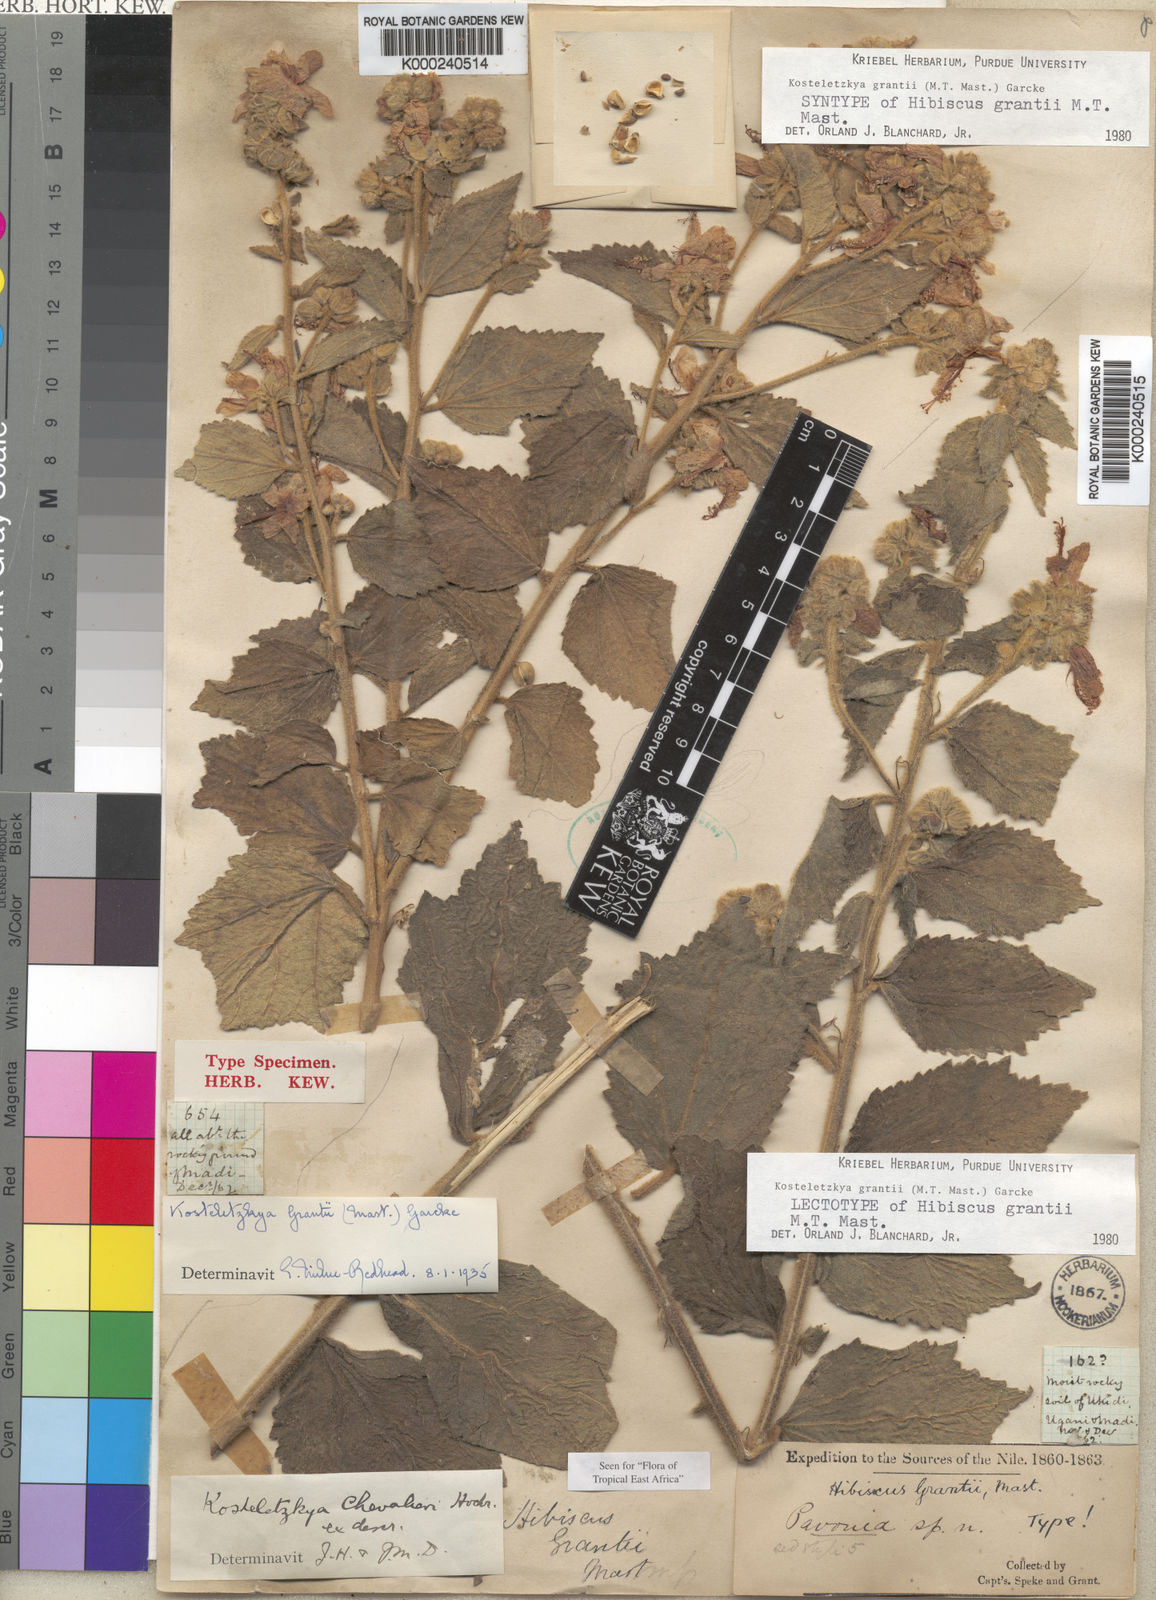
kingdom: Plantae
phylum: Tracheophyta
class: Magnoliopsida
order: Malvales
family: Malvaceae
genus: Kosteletzkya
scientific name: Kosteletzkya grantii
